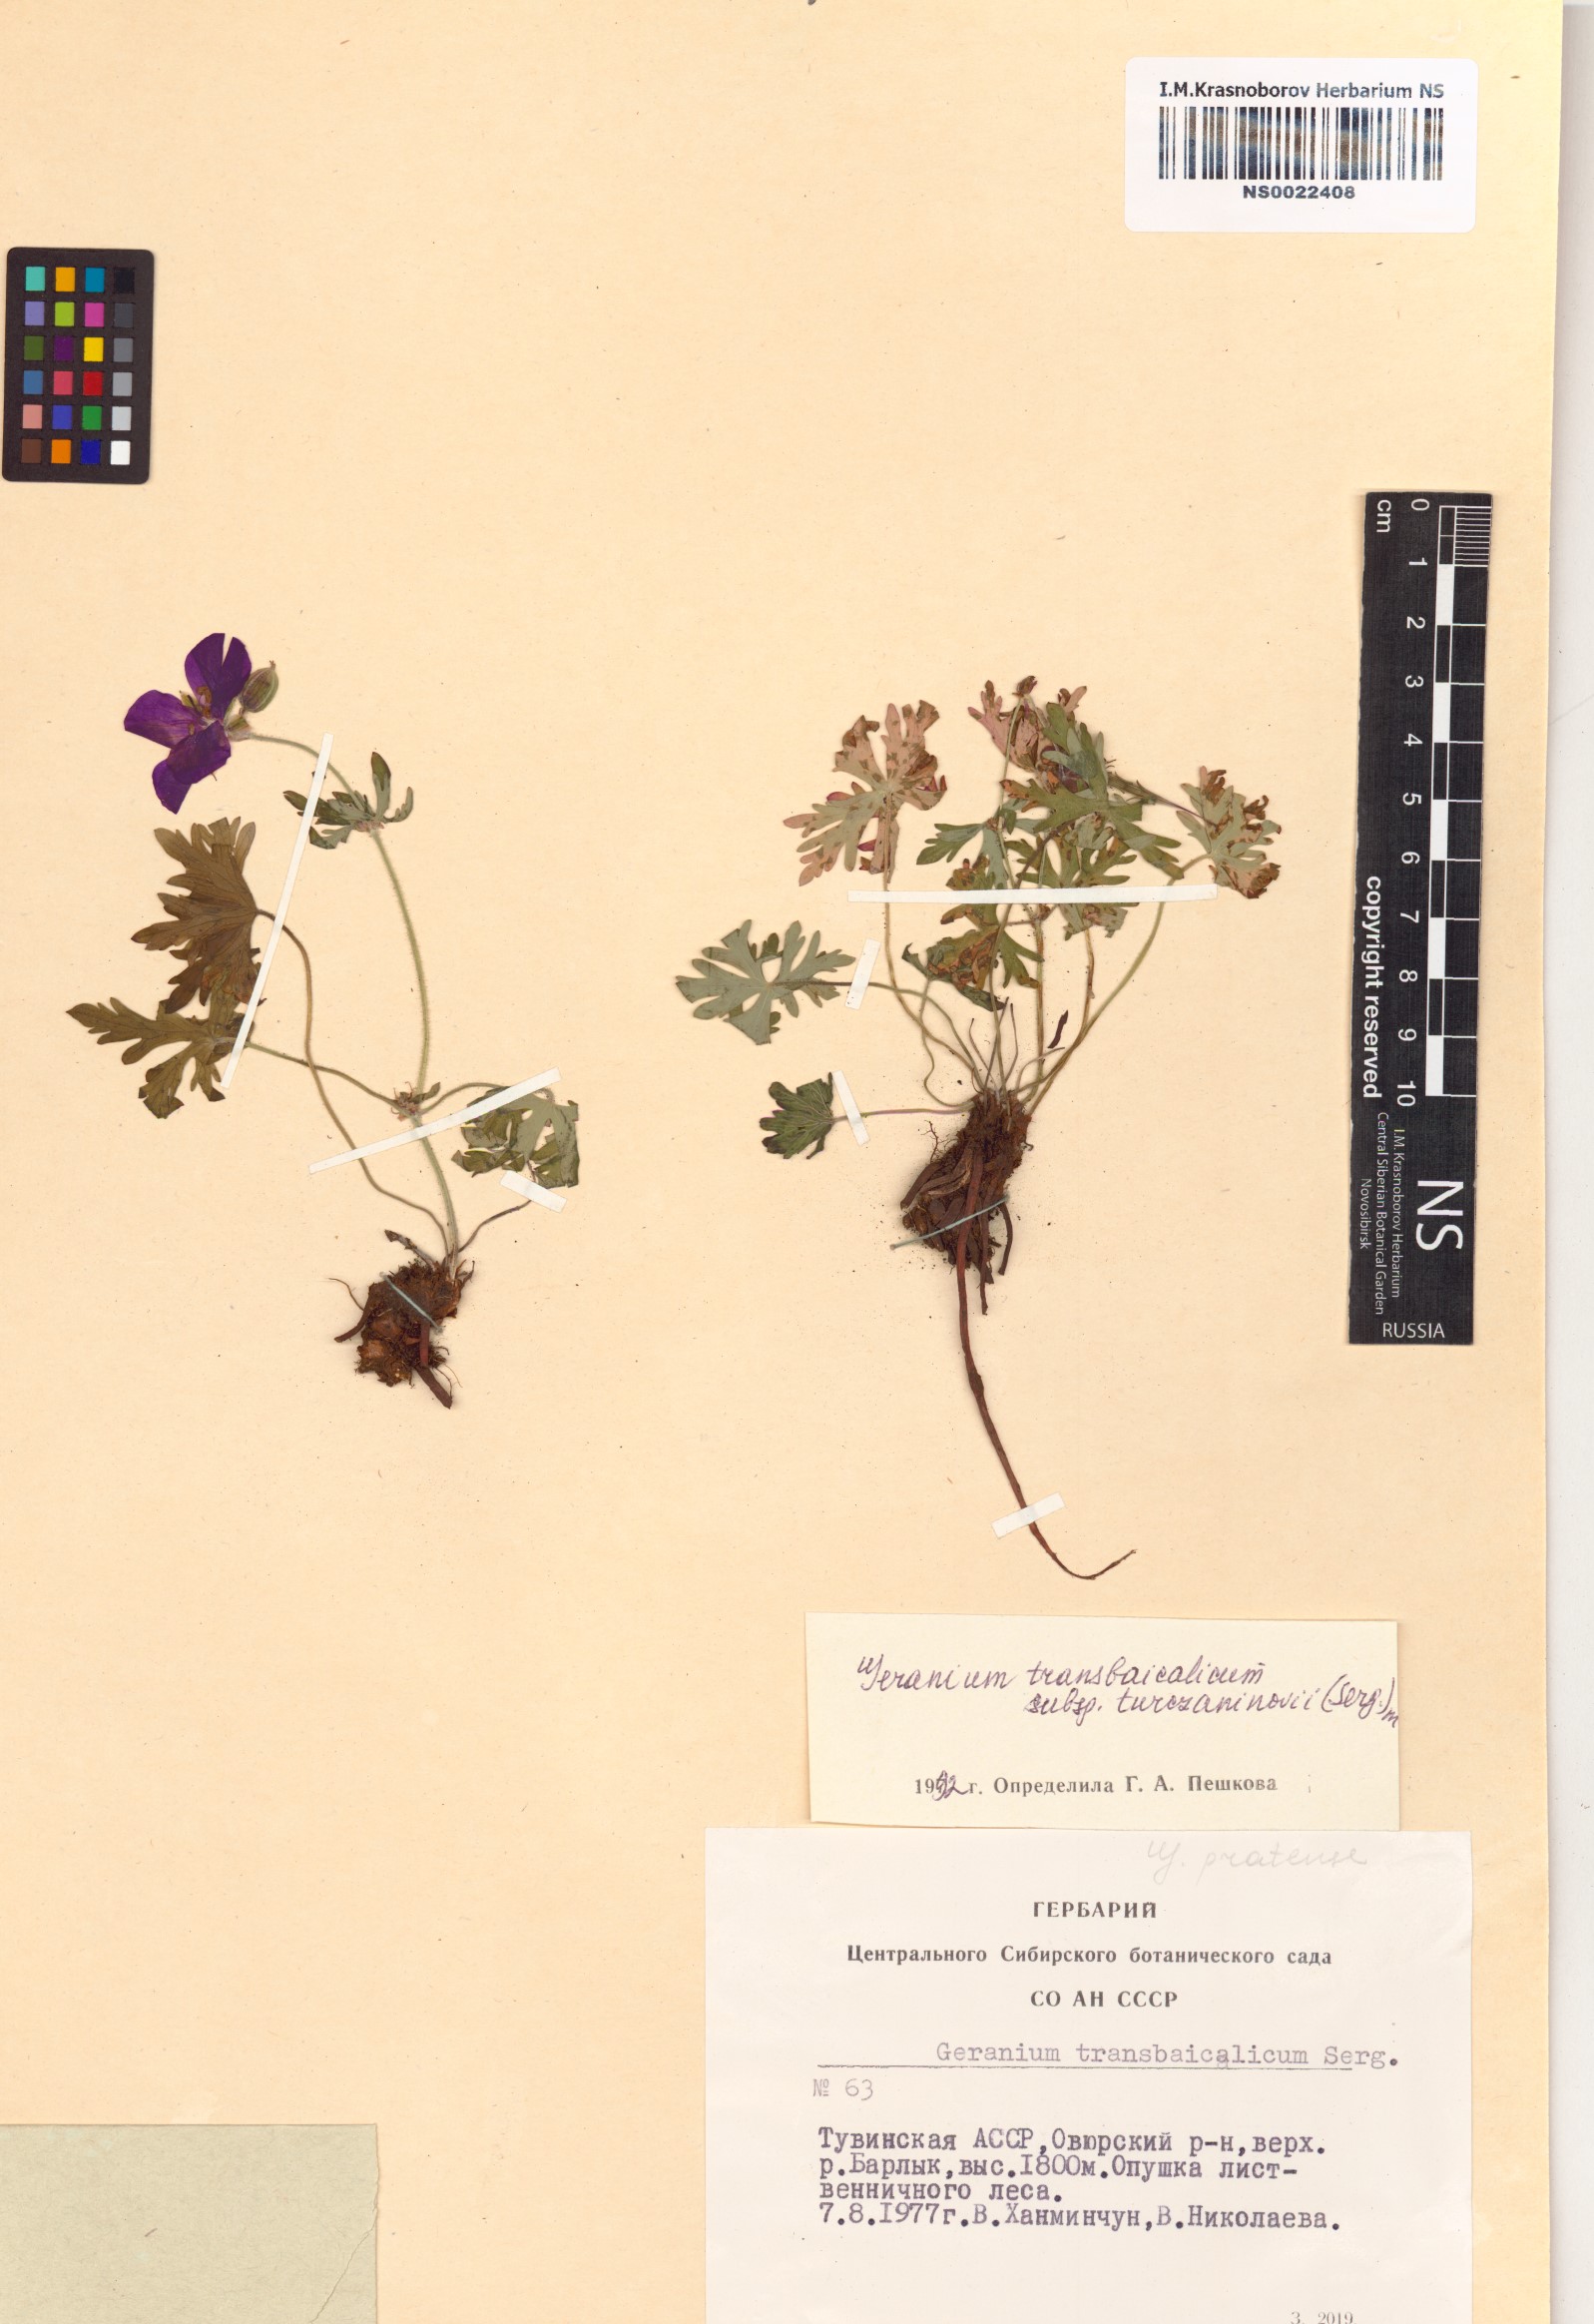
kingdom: Plantae
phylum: Tracheophyta
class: Magnoliopsida
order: Geraniales
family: Geraniaceae
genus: Geranium
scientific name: Geranium pratense
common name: Meadow crane's-bill
